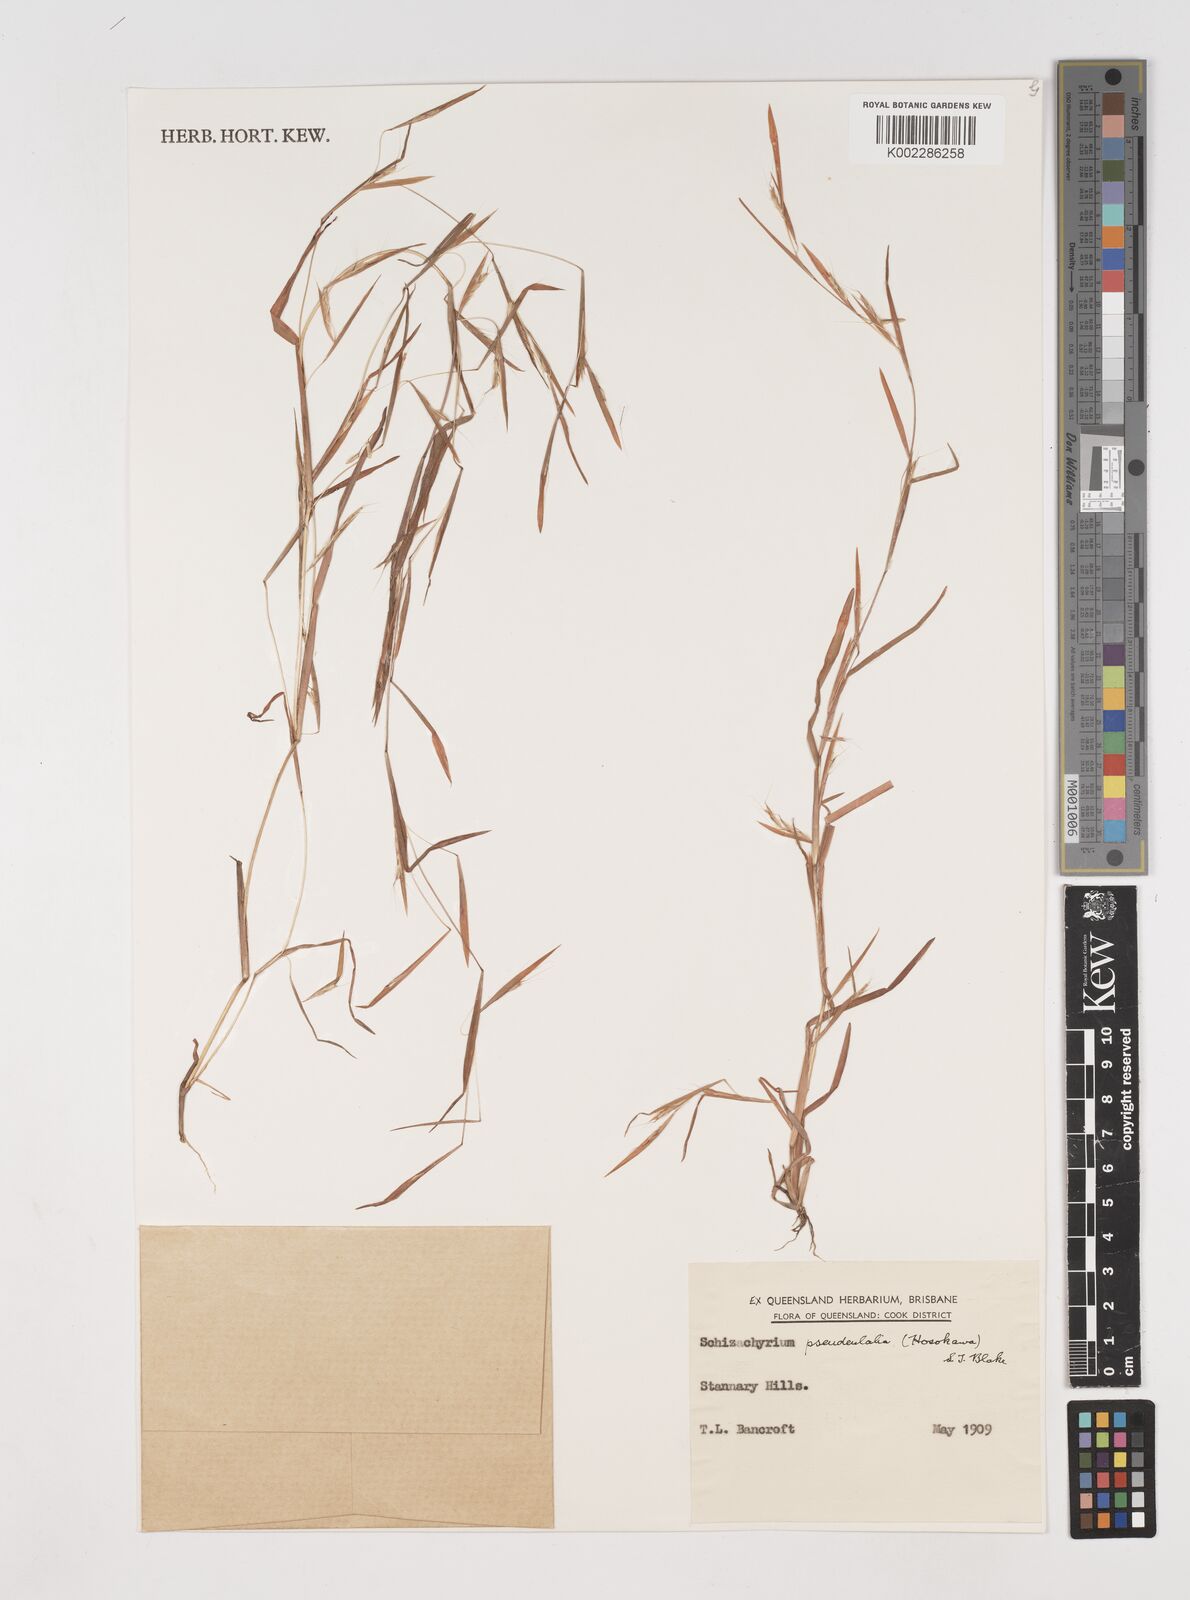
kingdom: Plantae
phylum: Tracheophyta
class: Liliopsida
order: Poales
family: Poaceae
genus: Schizachyrium
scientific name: Schizachyrium pseudeulalia
